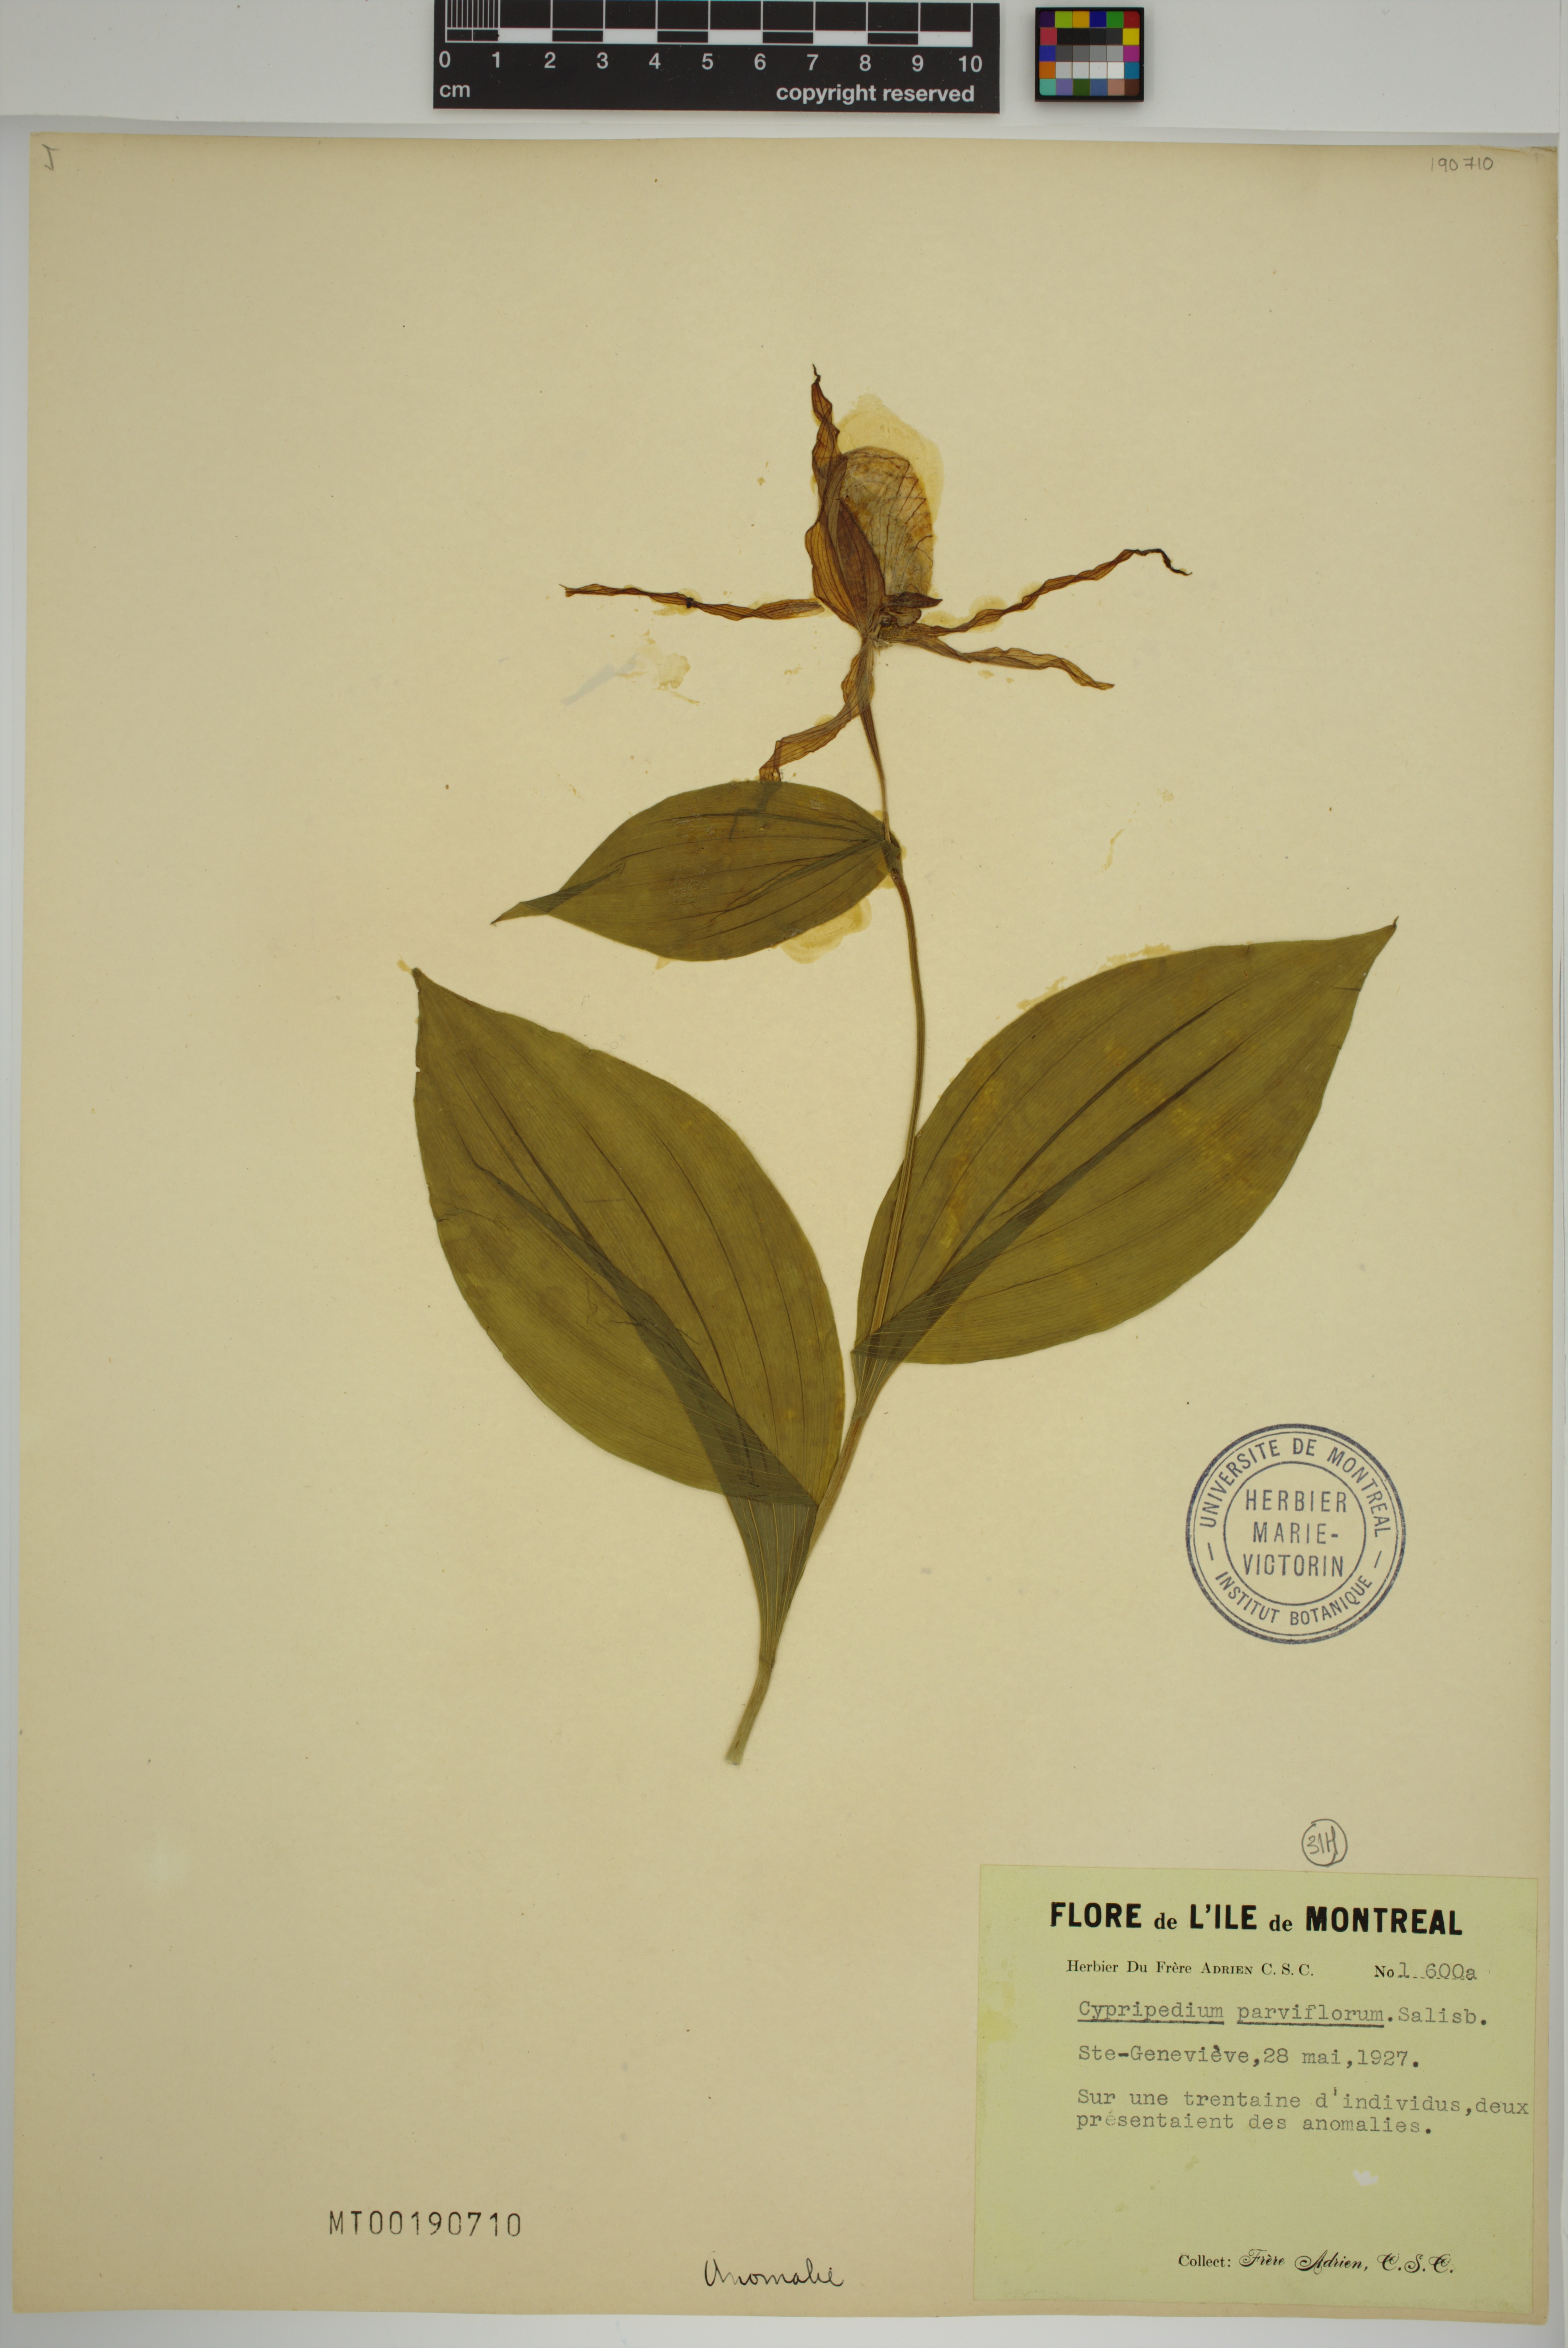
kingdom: Plantae
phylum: Tracheophyta
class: Liliopsida
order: Asparagales
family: Orchidaceae
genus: Cypripedium
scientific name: Cypripedium parviflorum
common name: American yellow lady's-slipper
